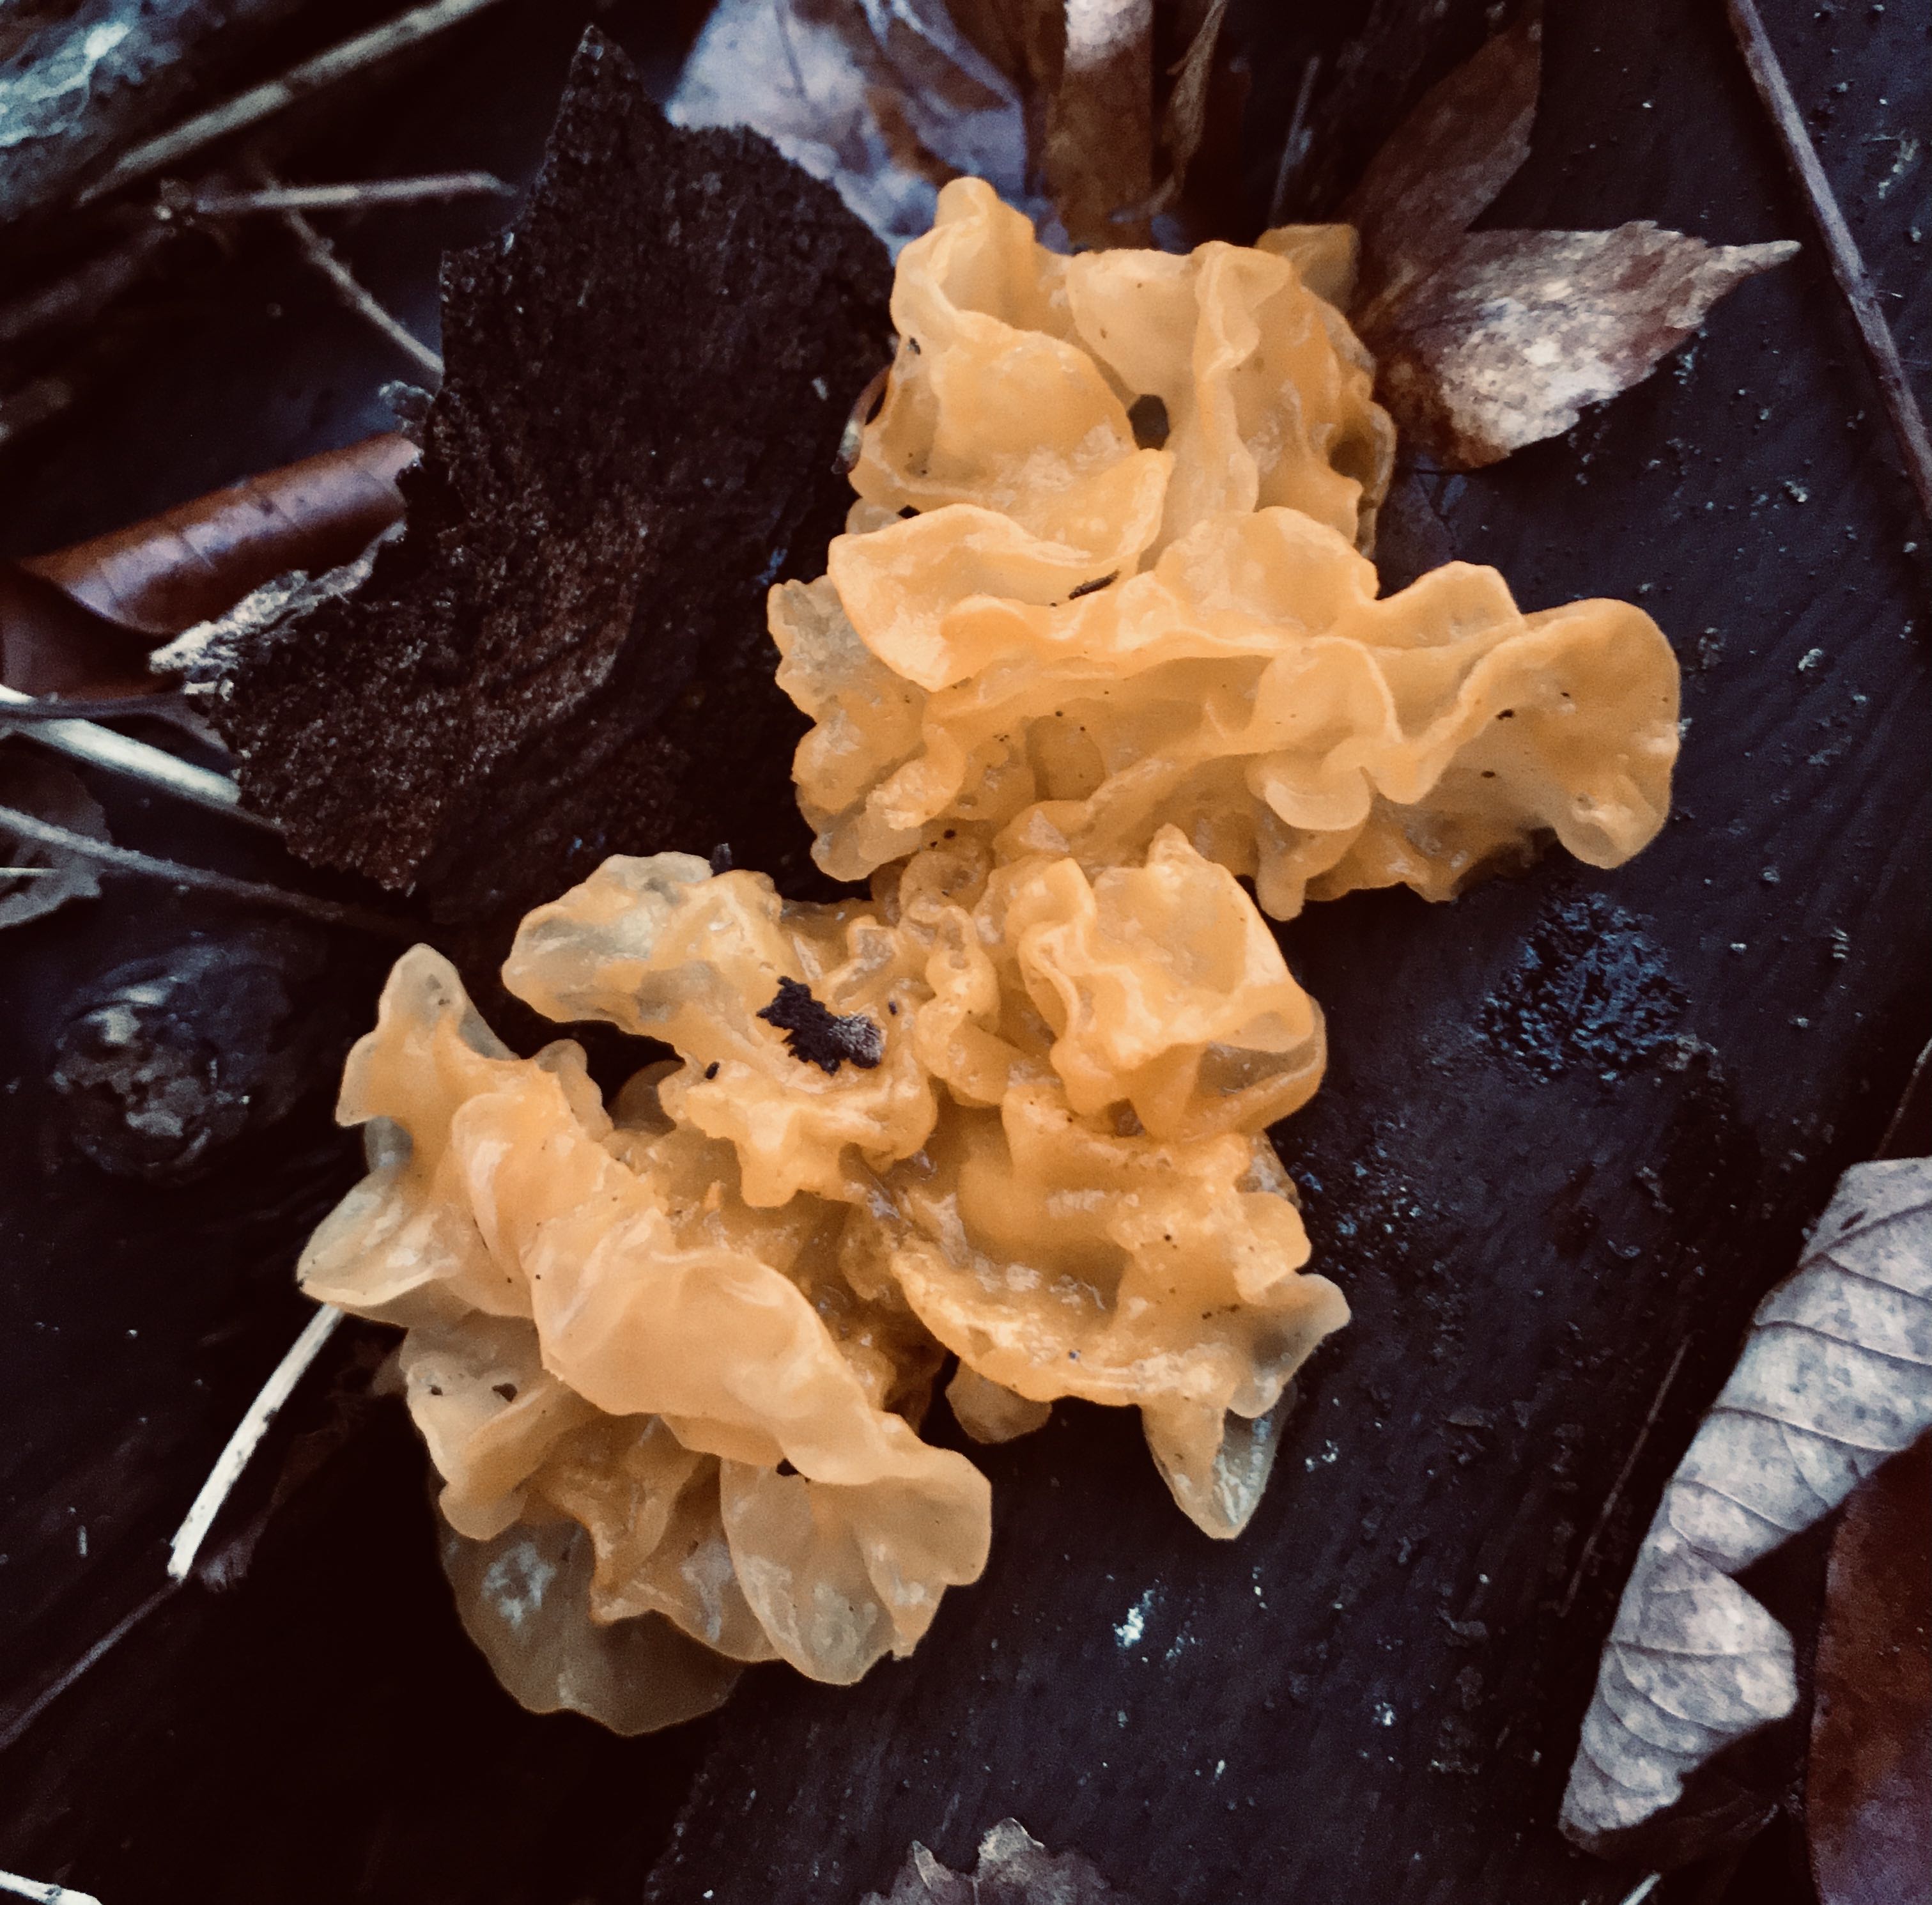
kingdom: Fungi
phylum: Basidiomycota
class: Tremellomycetes
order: Tremellales
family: Tremellaceae
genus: Tremella
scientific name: Tremella mesenterica
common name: gul bævresvamp
